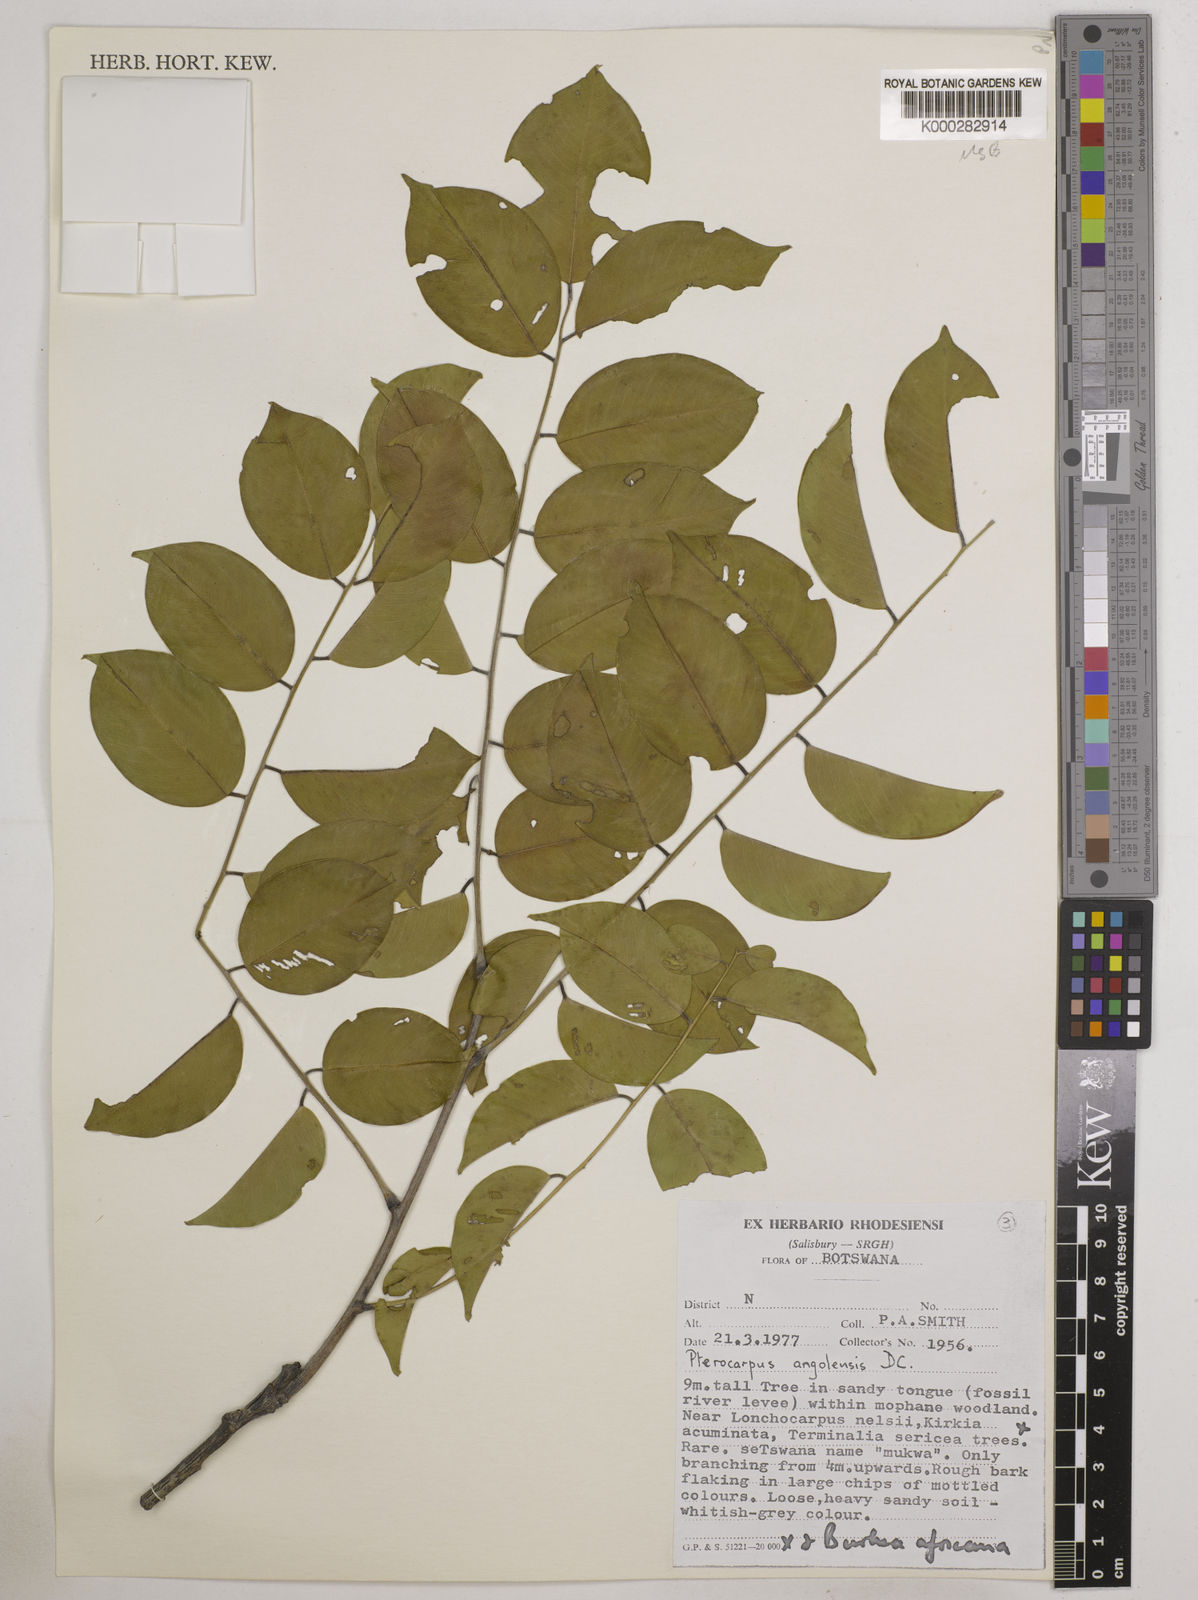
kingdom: Plantae
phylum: Tracheophyta
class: Magnoliopsida
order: Fabales
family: Fabaceae
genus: Pterocarpus
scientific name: Pterocarpus angolensis
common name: Bloodwood tree
